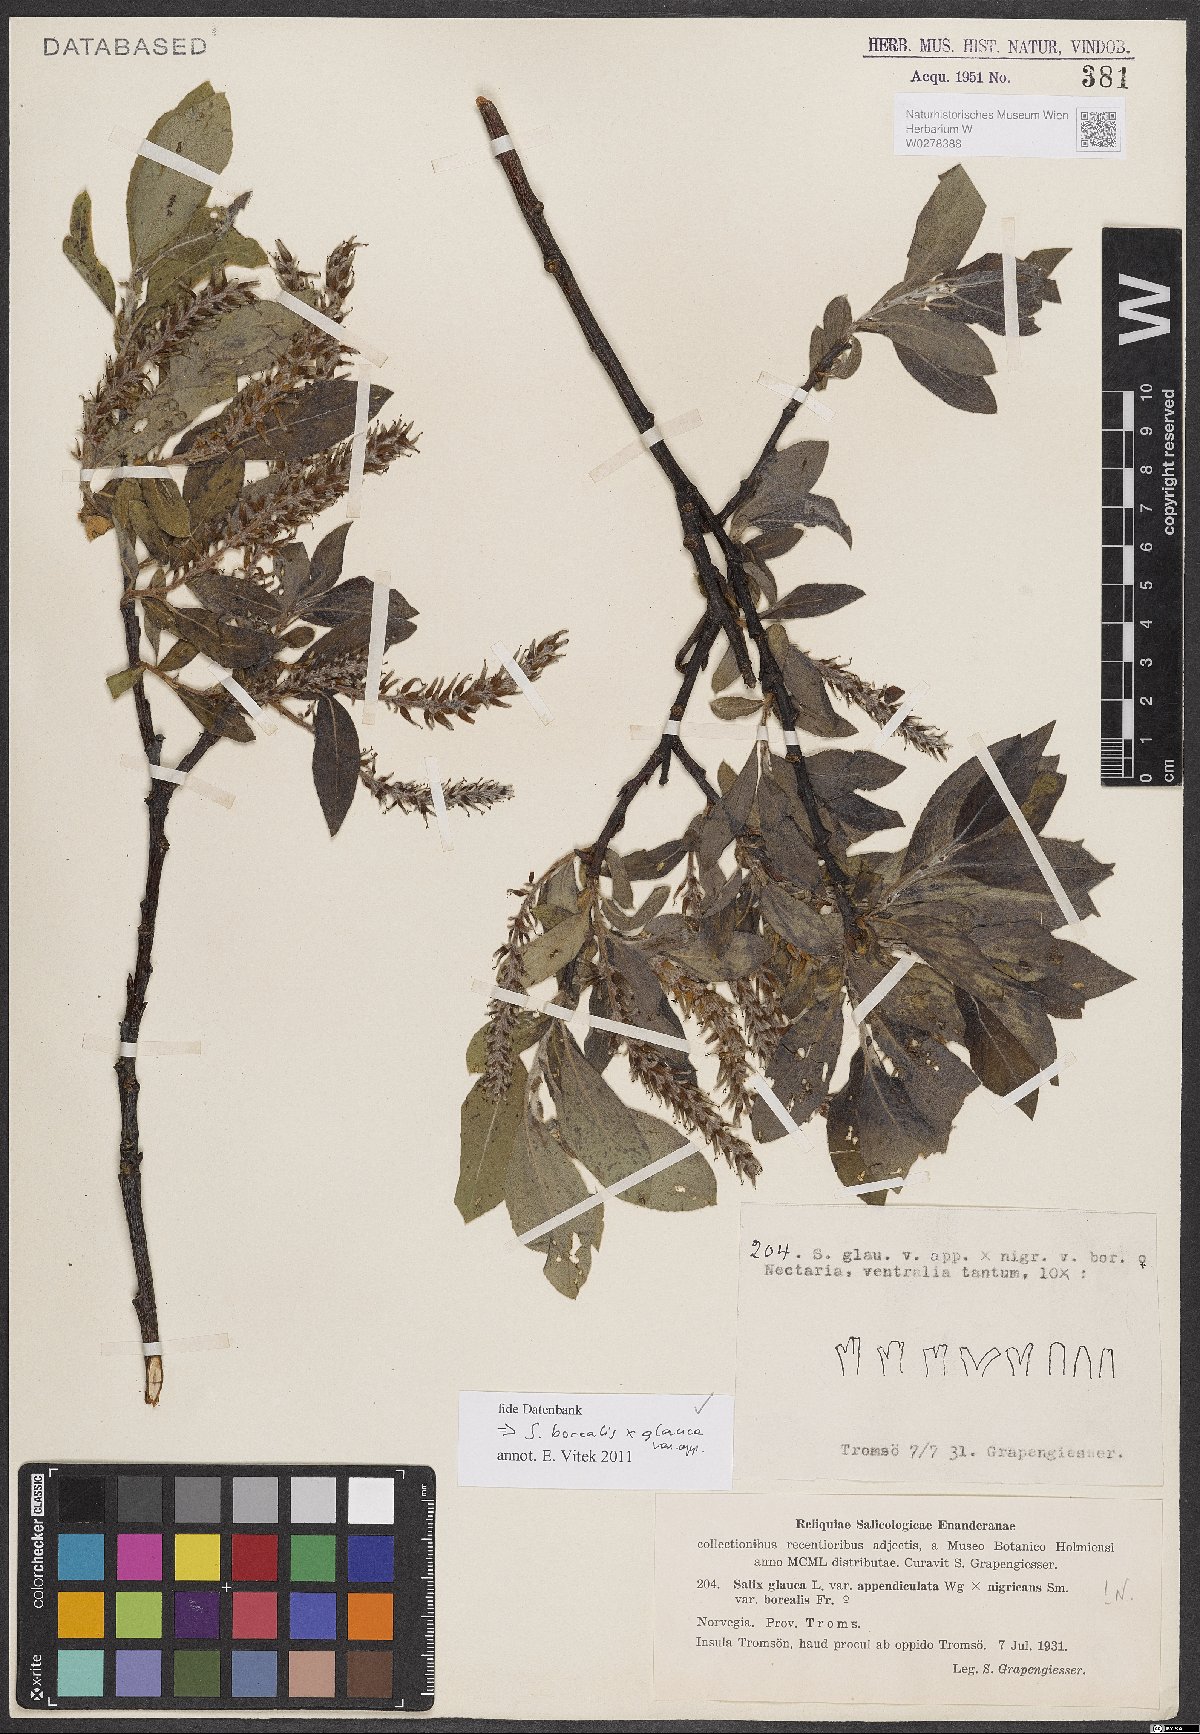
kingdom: Plantae
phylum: Tracheophyta
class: Magnoliopsida
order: Malpighiales
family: Salicaceae
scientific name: Salicaceae
